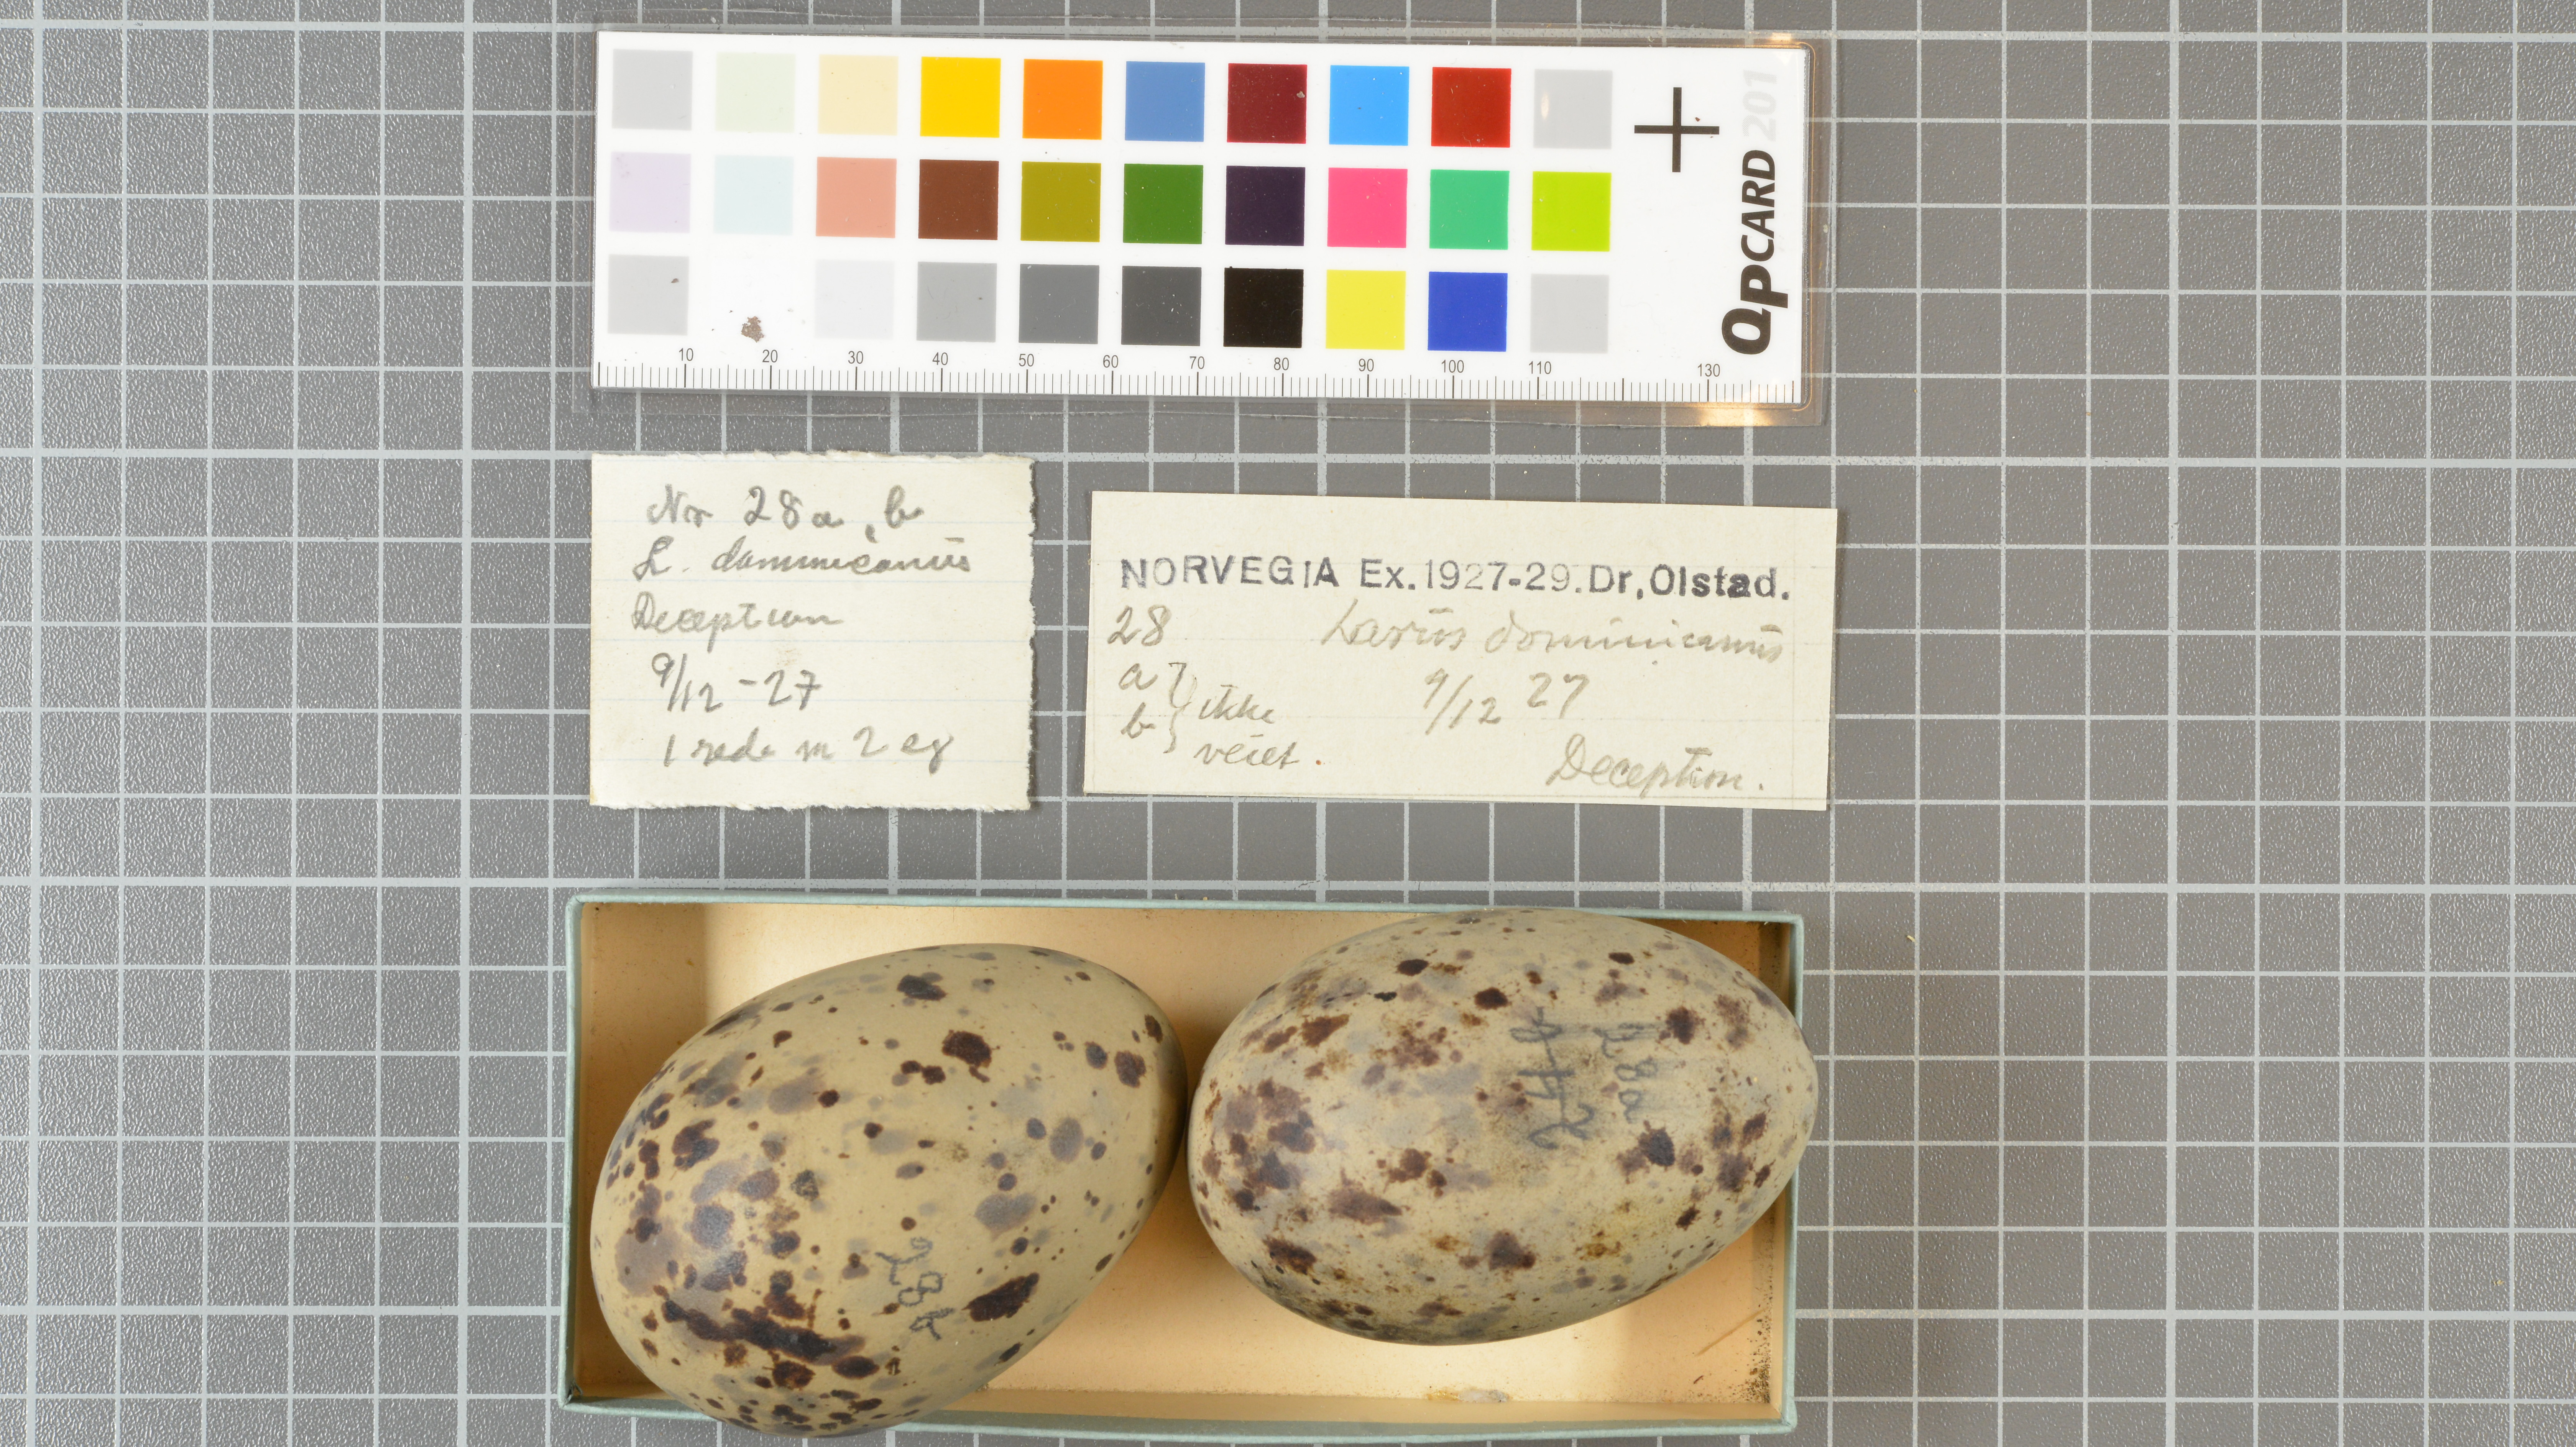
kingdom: Animalia
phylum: Chordata
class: Aves
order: Charadriiformes
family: Laridae
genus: Larus
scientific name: Larus dominicanus
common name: Kelp gull
